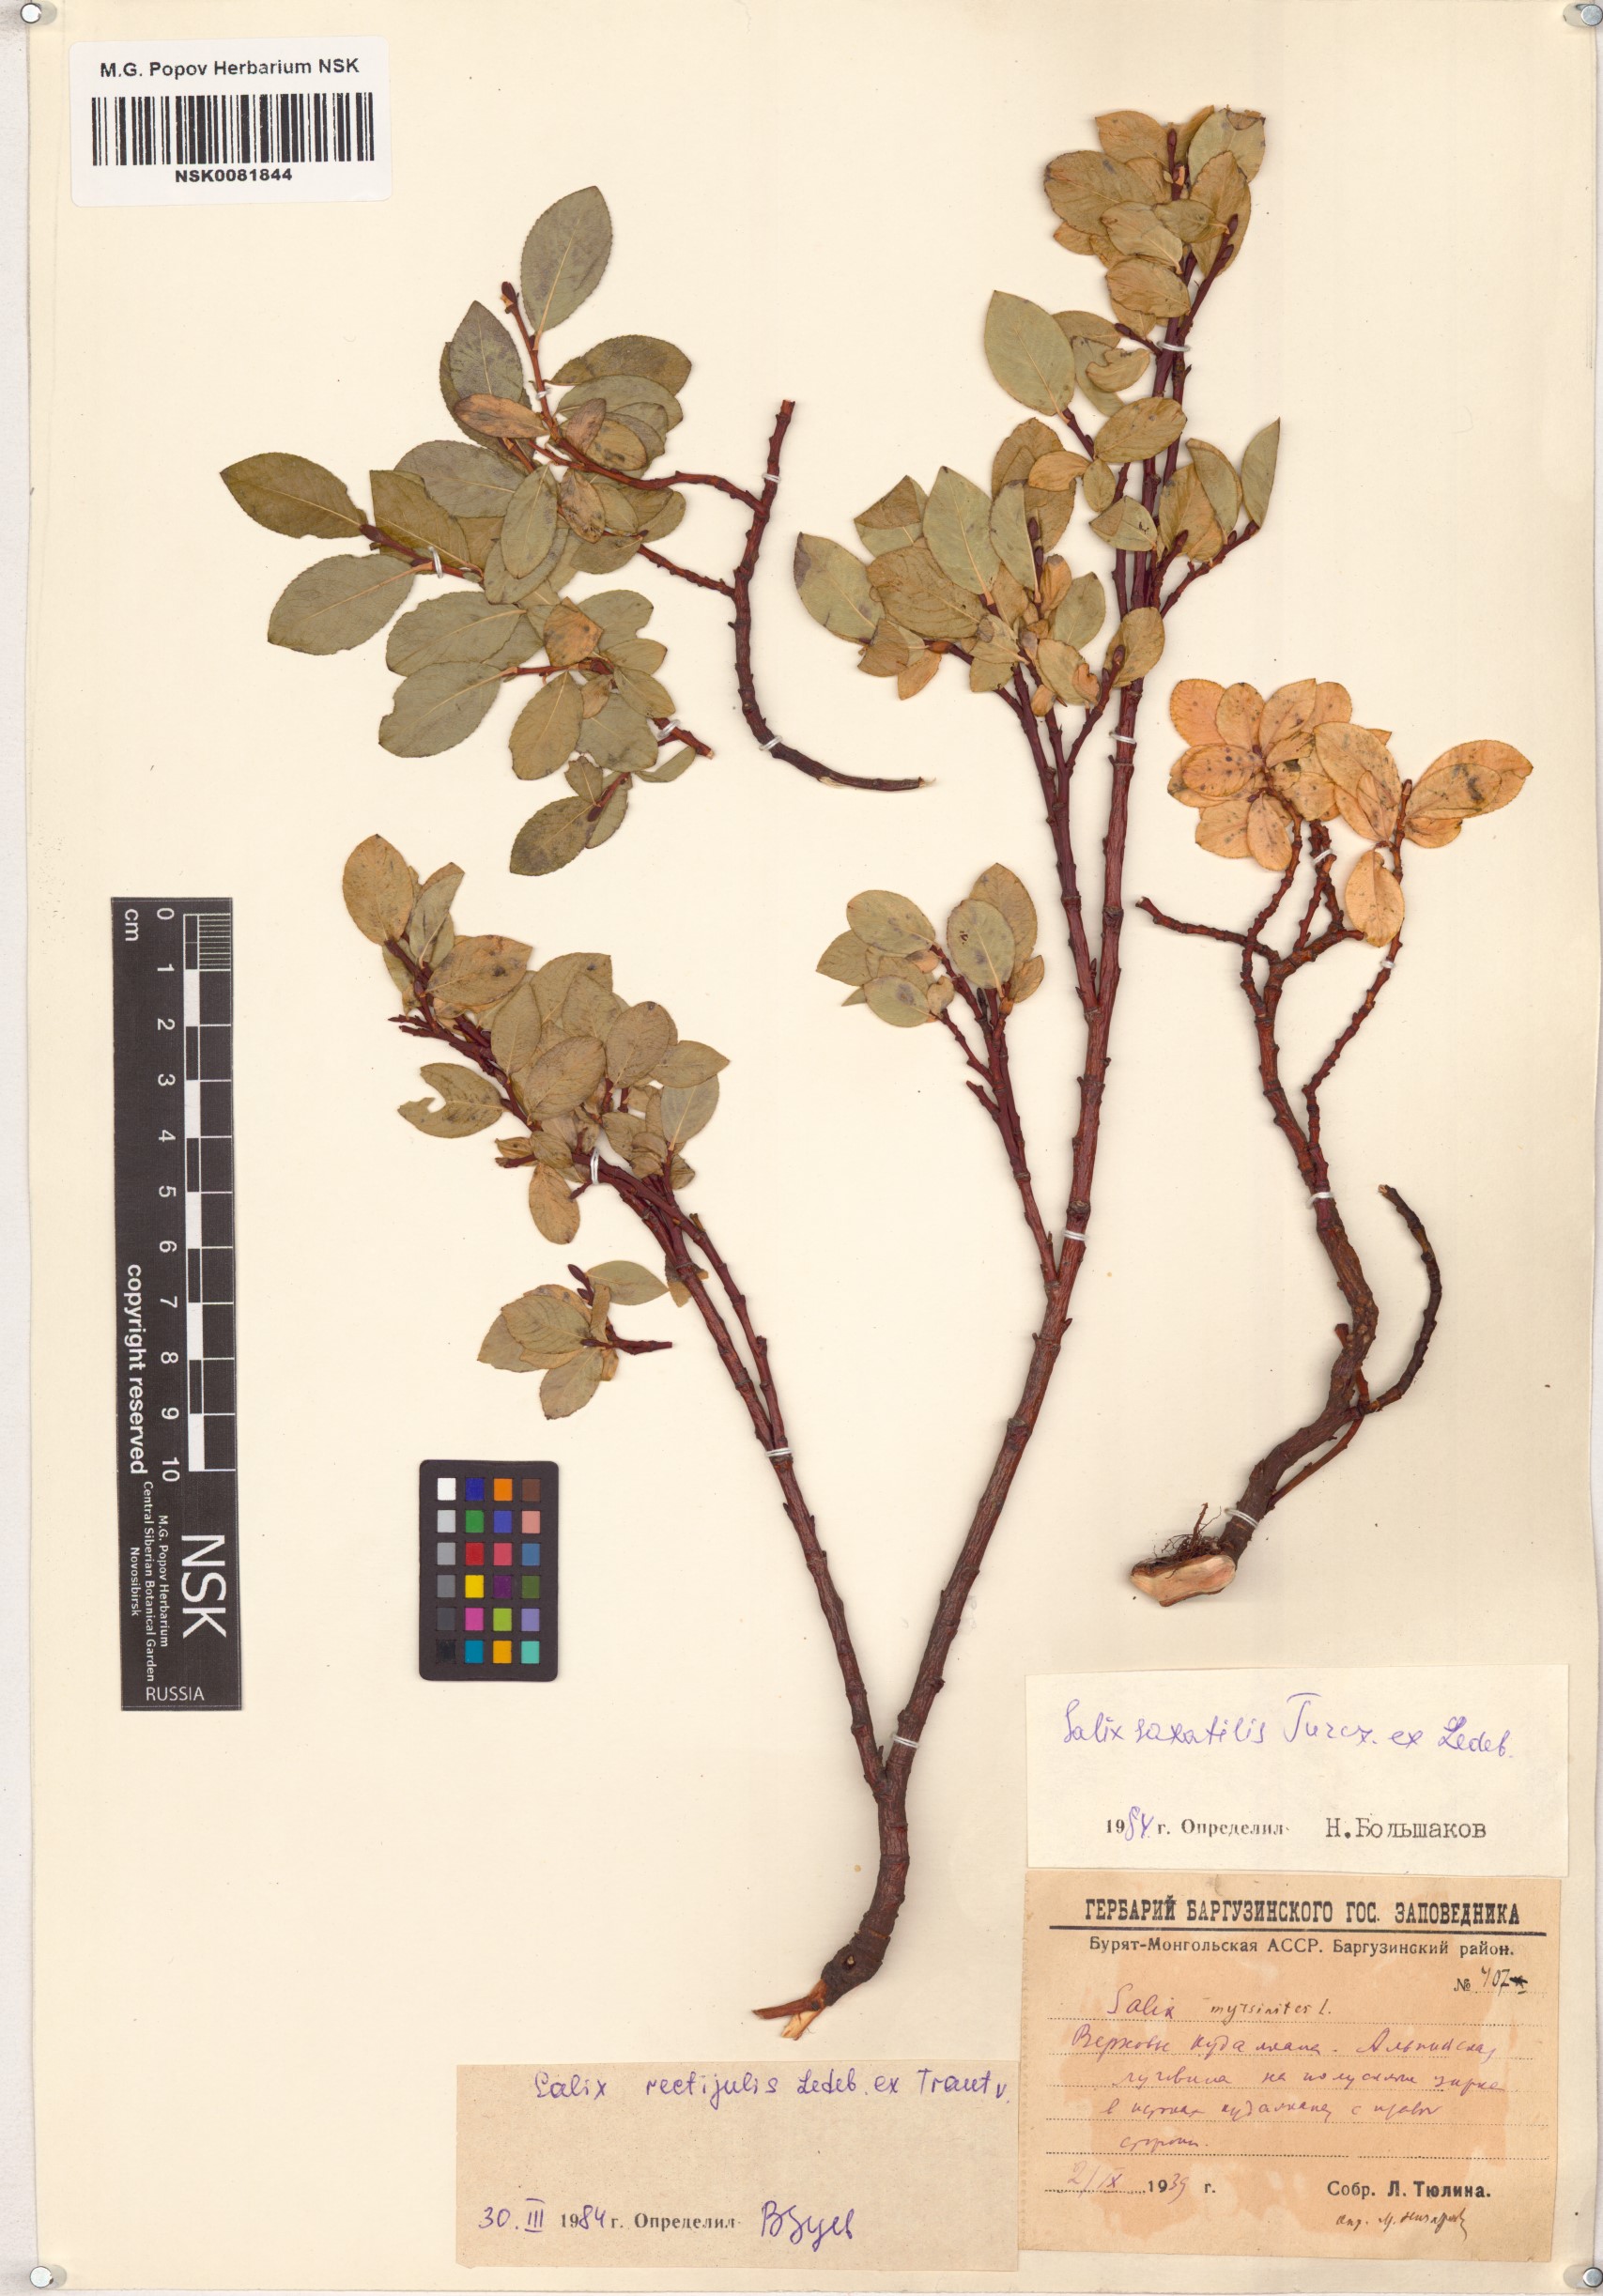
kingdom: Plantae
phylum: Tracheophyta
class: Magnoliopsida
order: Malpighiales
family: Salicaceae
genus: Salix
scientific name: Salix saxatilis
